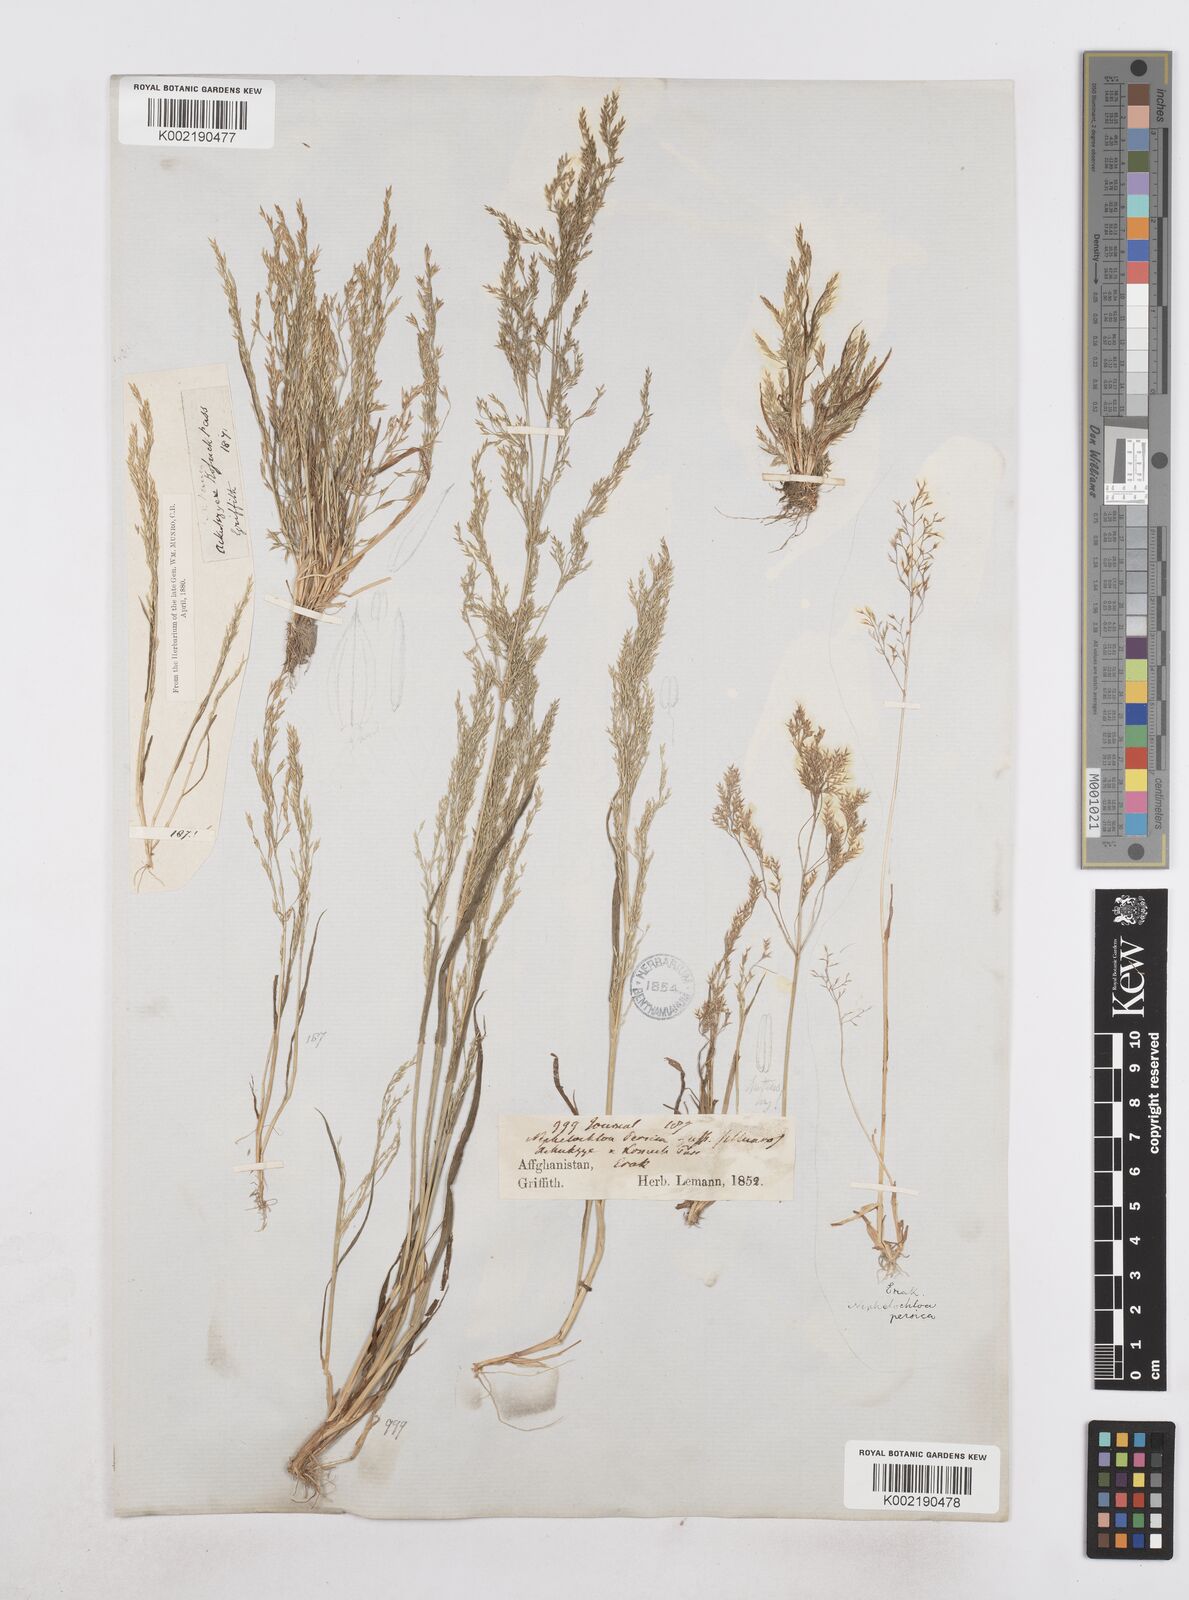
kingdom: Plantae
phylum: Tracheophyta
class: Liliopsida
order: Poales
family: Poaceae
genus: Poa
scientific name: Poa diaphora
